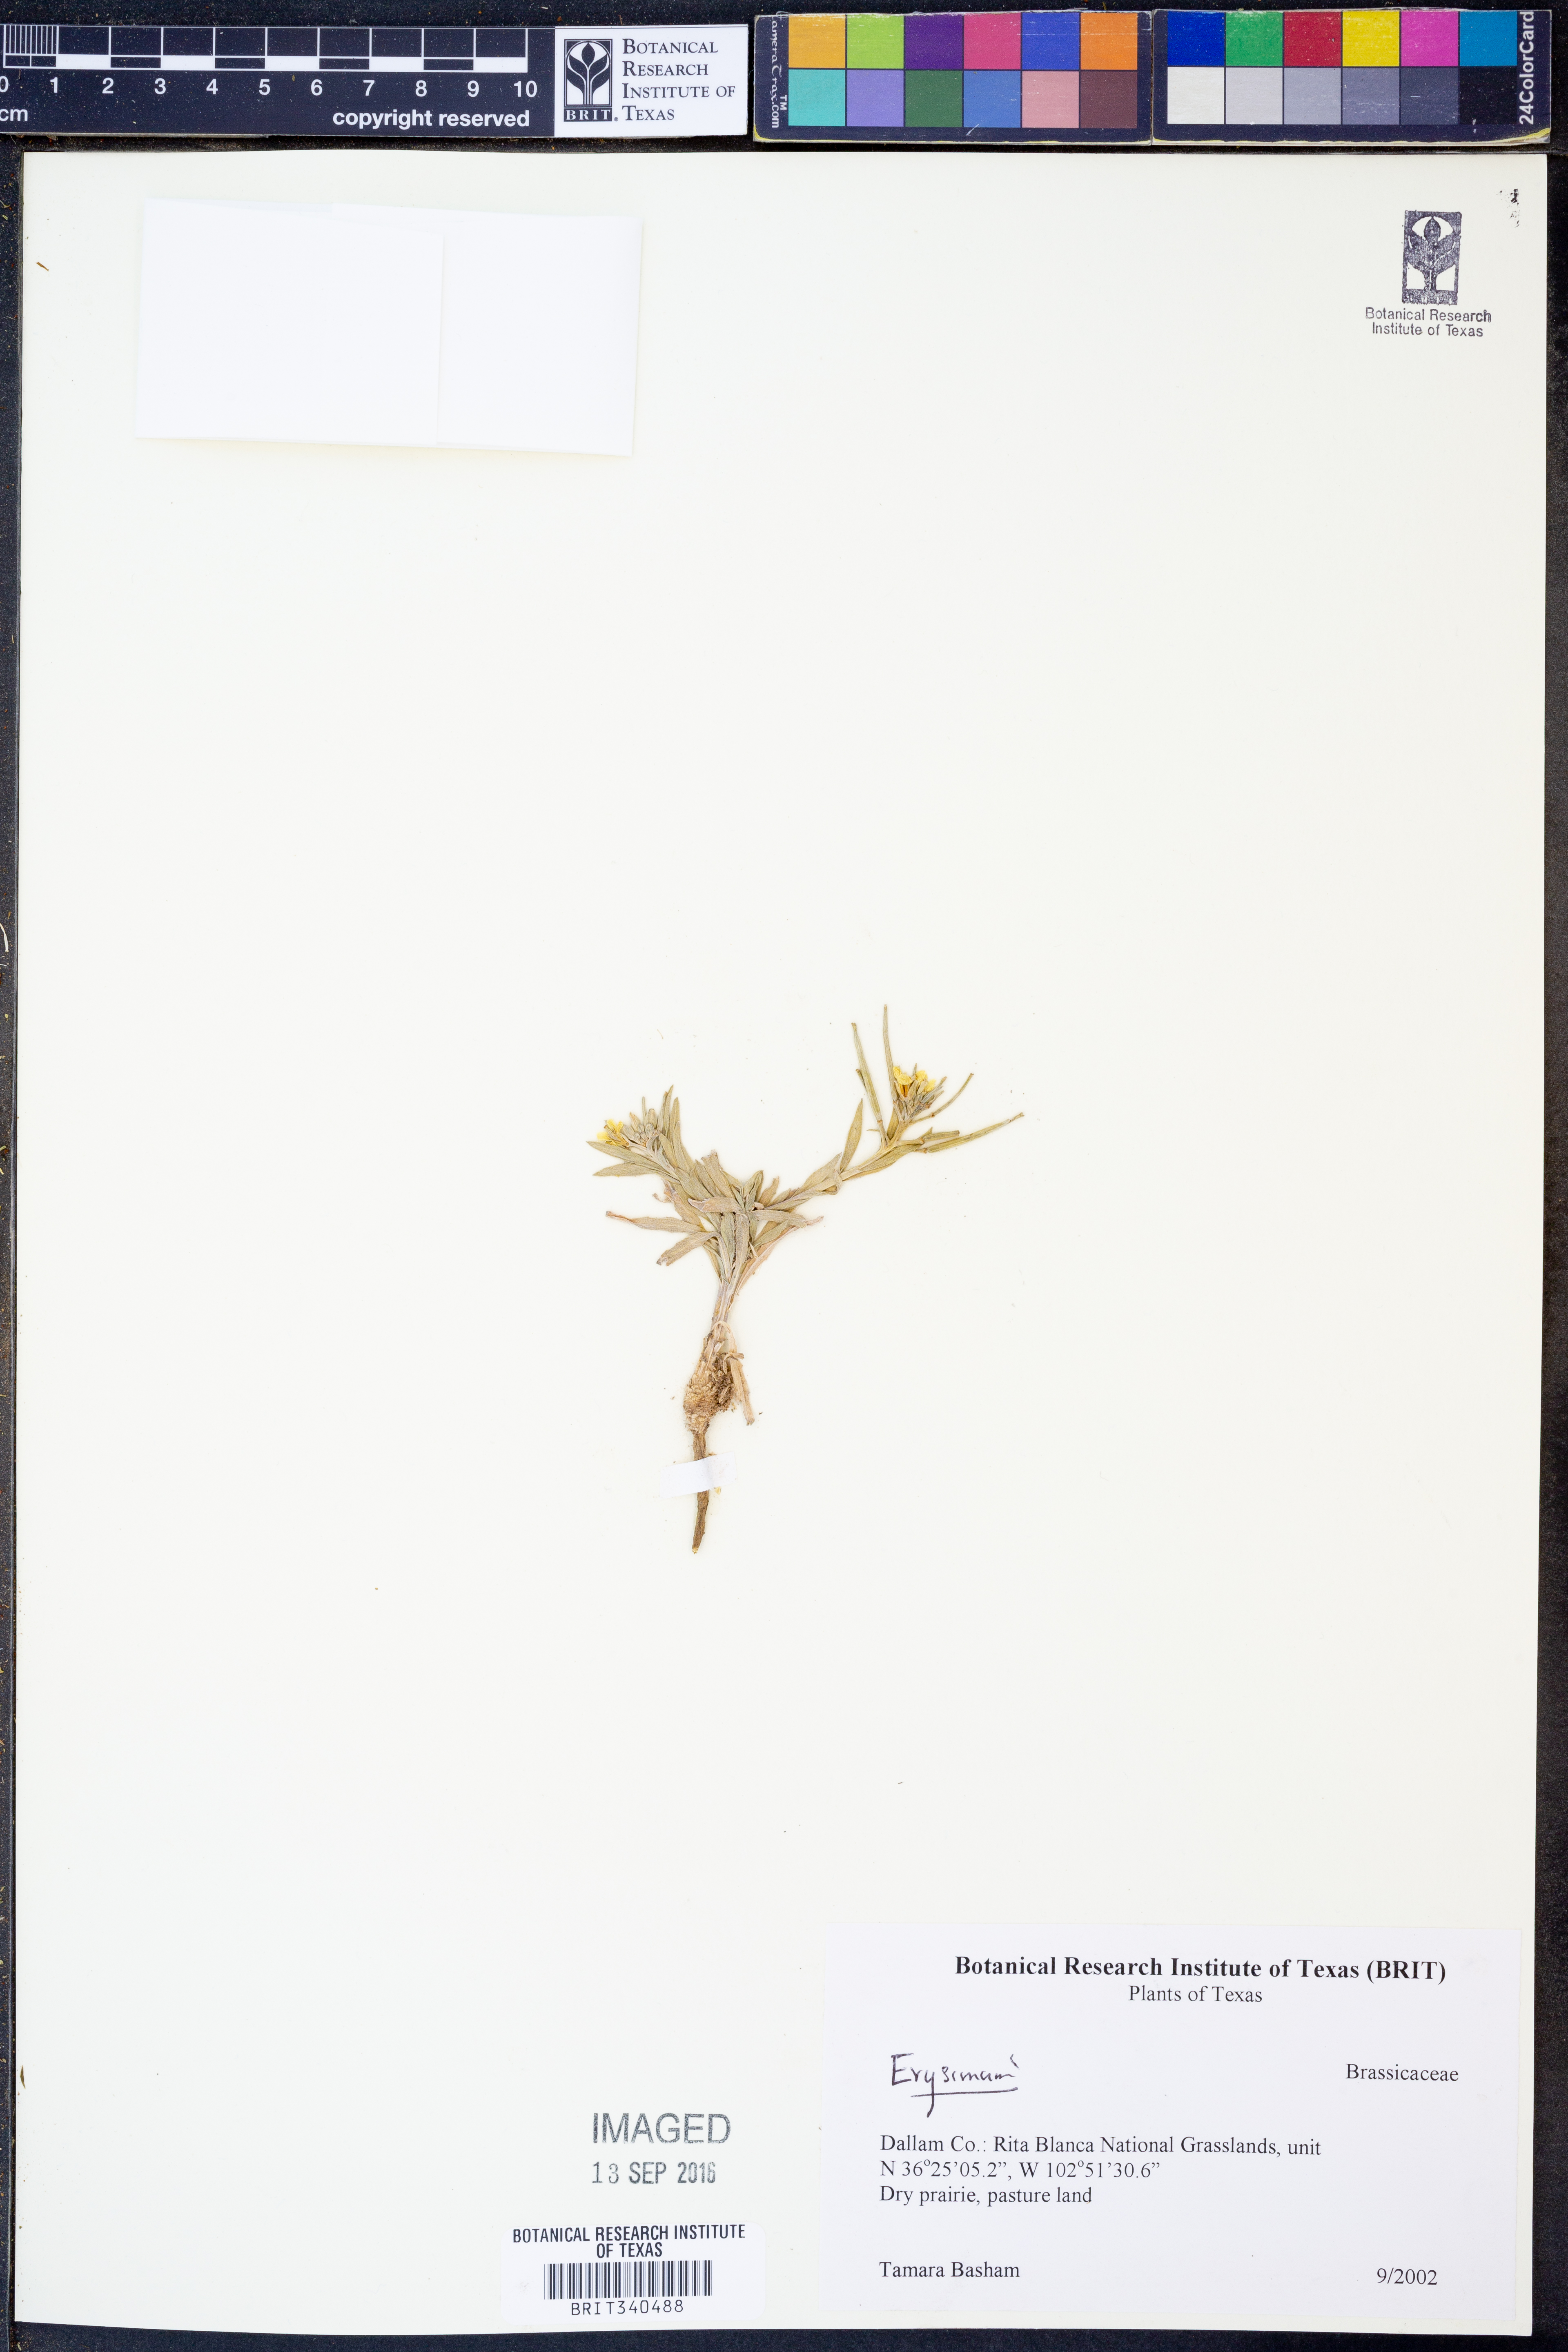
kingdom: Plantae
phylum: Tracheophyta
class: Magnoliopsida
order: Brassicales
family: Brassicaceae
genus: Erysimum
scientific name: Erysimum
